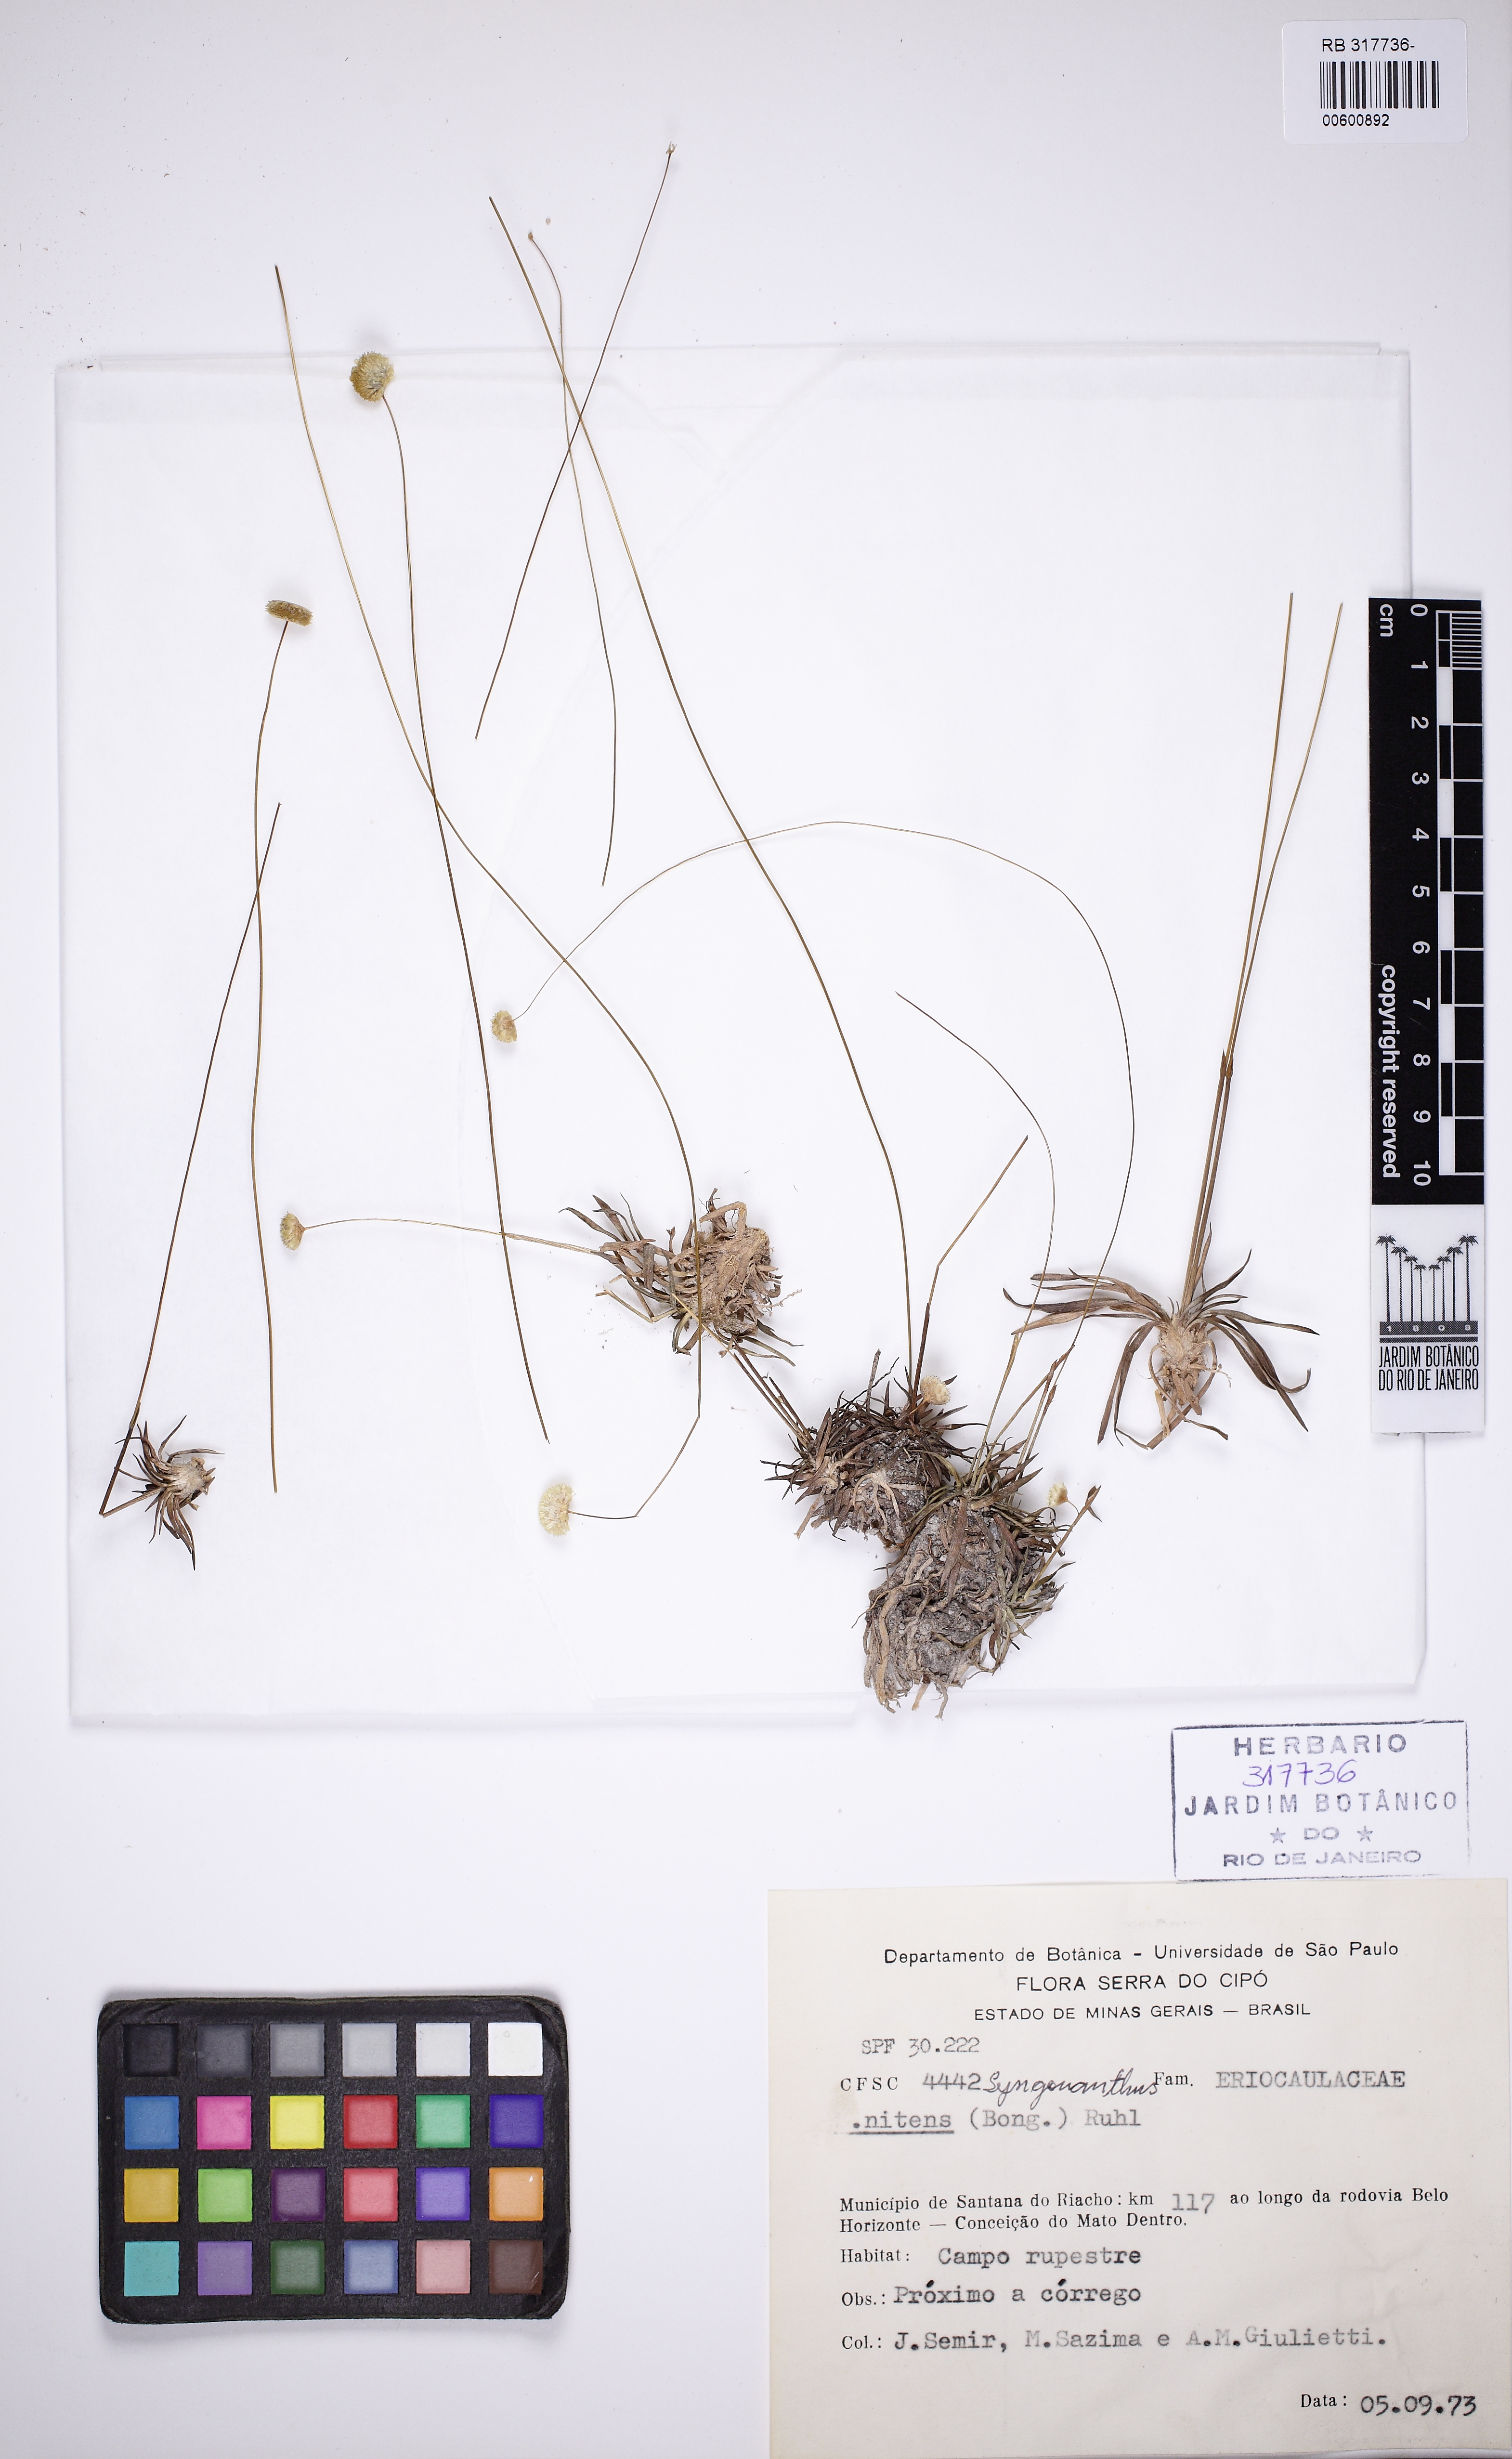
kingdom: Plantae
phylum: Tracheophyta
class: Liliopsida
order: Poales
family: Eriocaulaceae
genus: Syngonanthus
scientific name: Syngonanthus nitens
